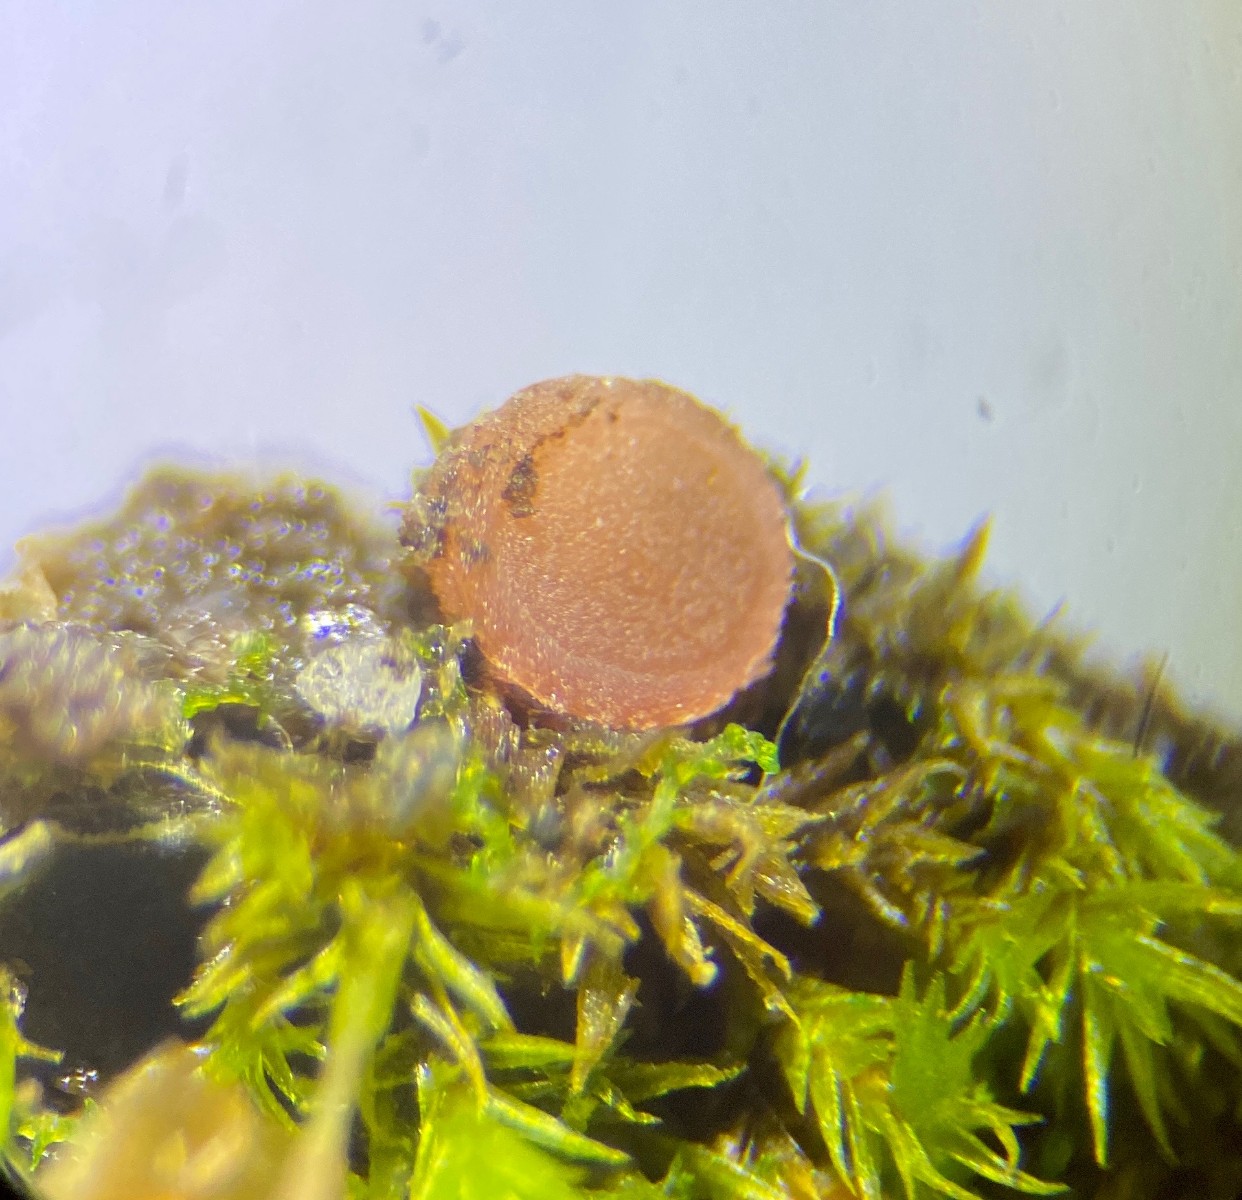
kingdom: Fungi
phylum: Ascomycota
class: Pezizomycetes
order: Pezizales
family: Pyronemataceae
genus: Octospora
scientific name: Octospora rubens
